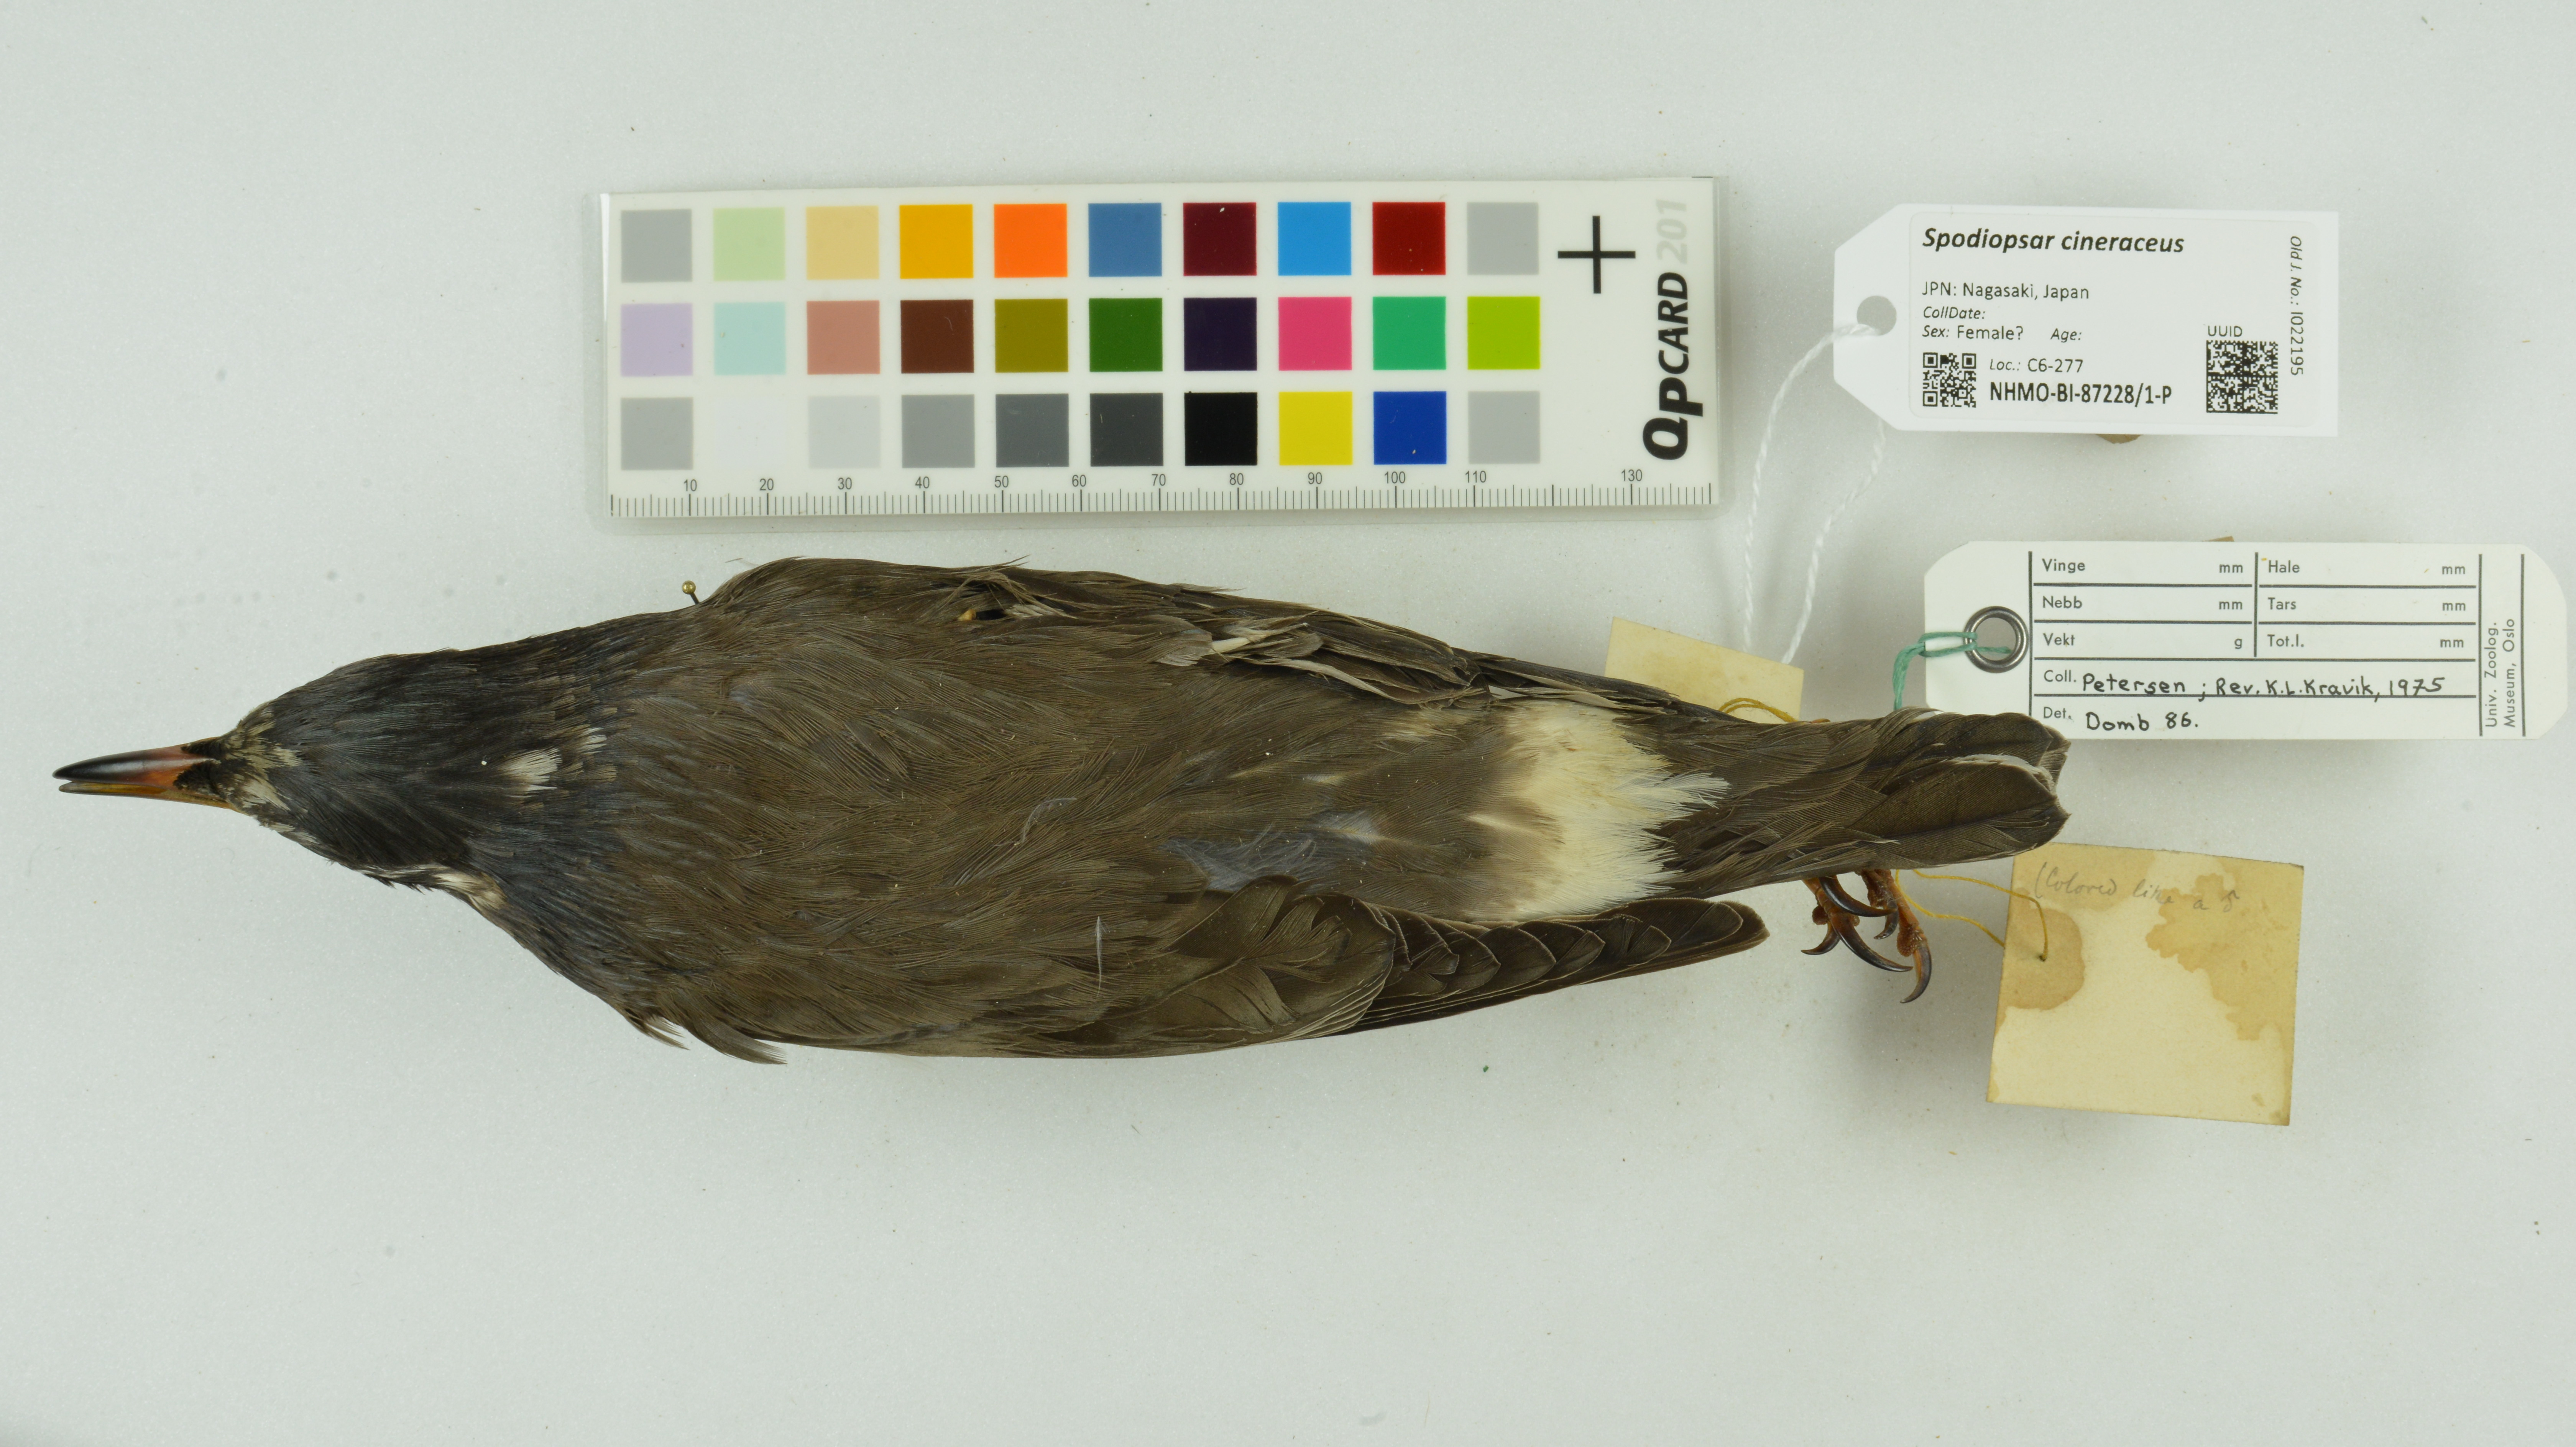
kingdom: Animalia
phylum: Chordata
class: Aves
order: Passeriformes
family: Sturnidae
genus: Spodiopsar
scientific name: Spodiopsar cineraceus
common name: White-cheeked starling
